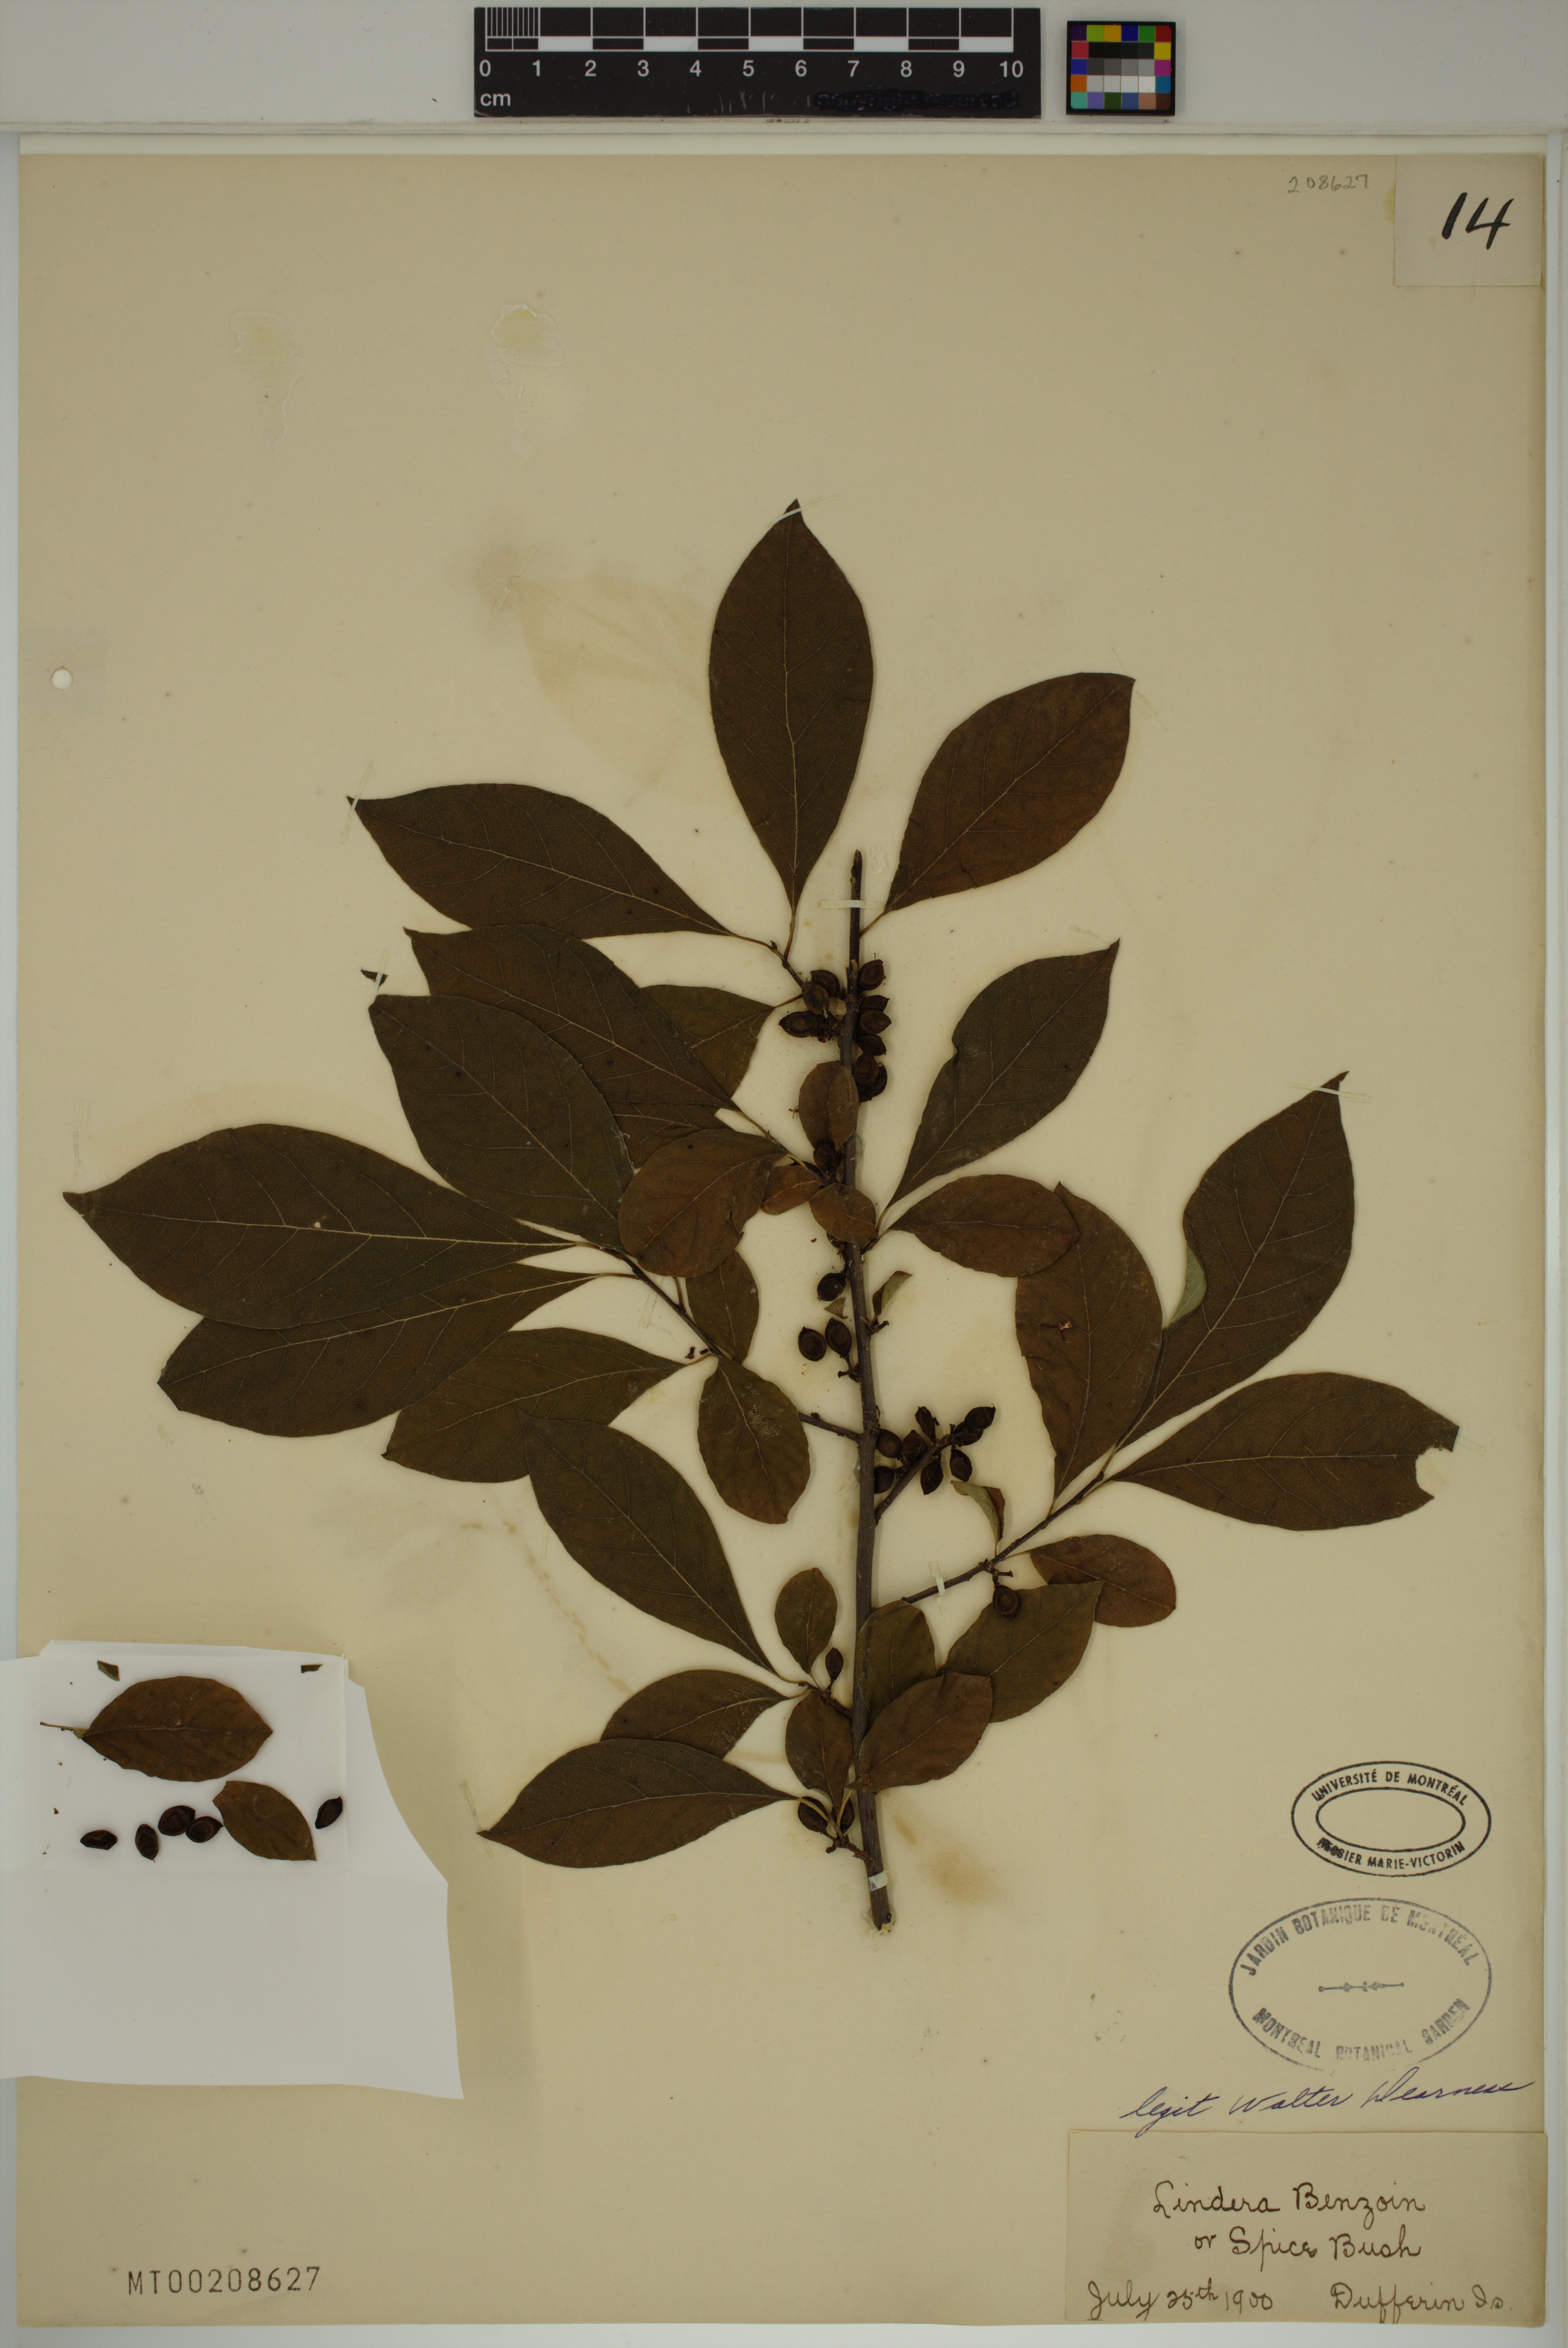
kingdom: Plantae
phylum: Tracheophyta
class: Magnoliopsida
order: Laurales
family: Lauraceae
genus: Lindera
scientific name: Lindera benzoin
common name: Spicebush
